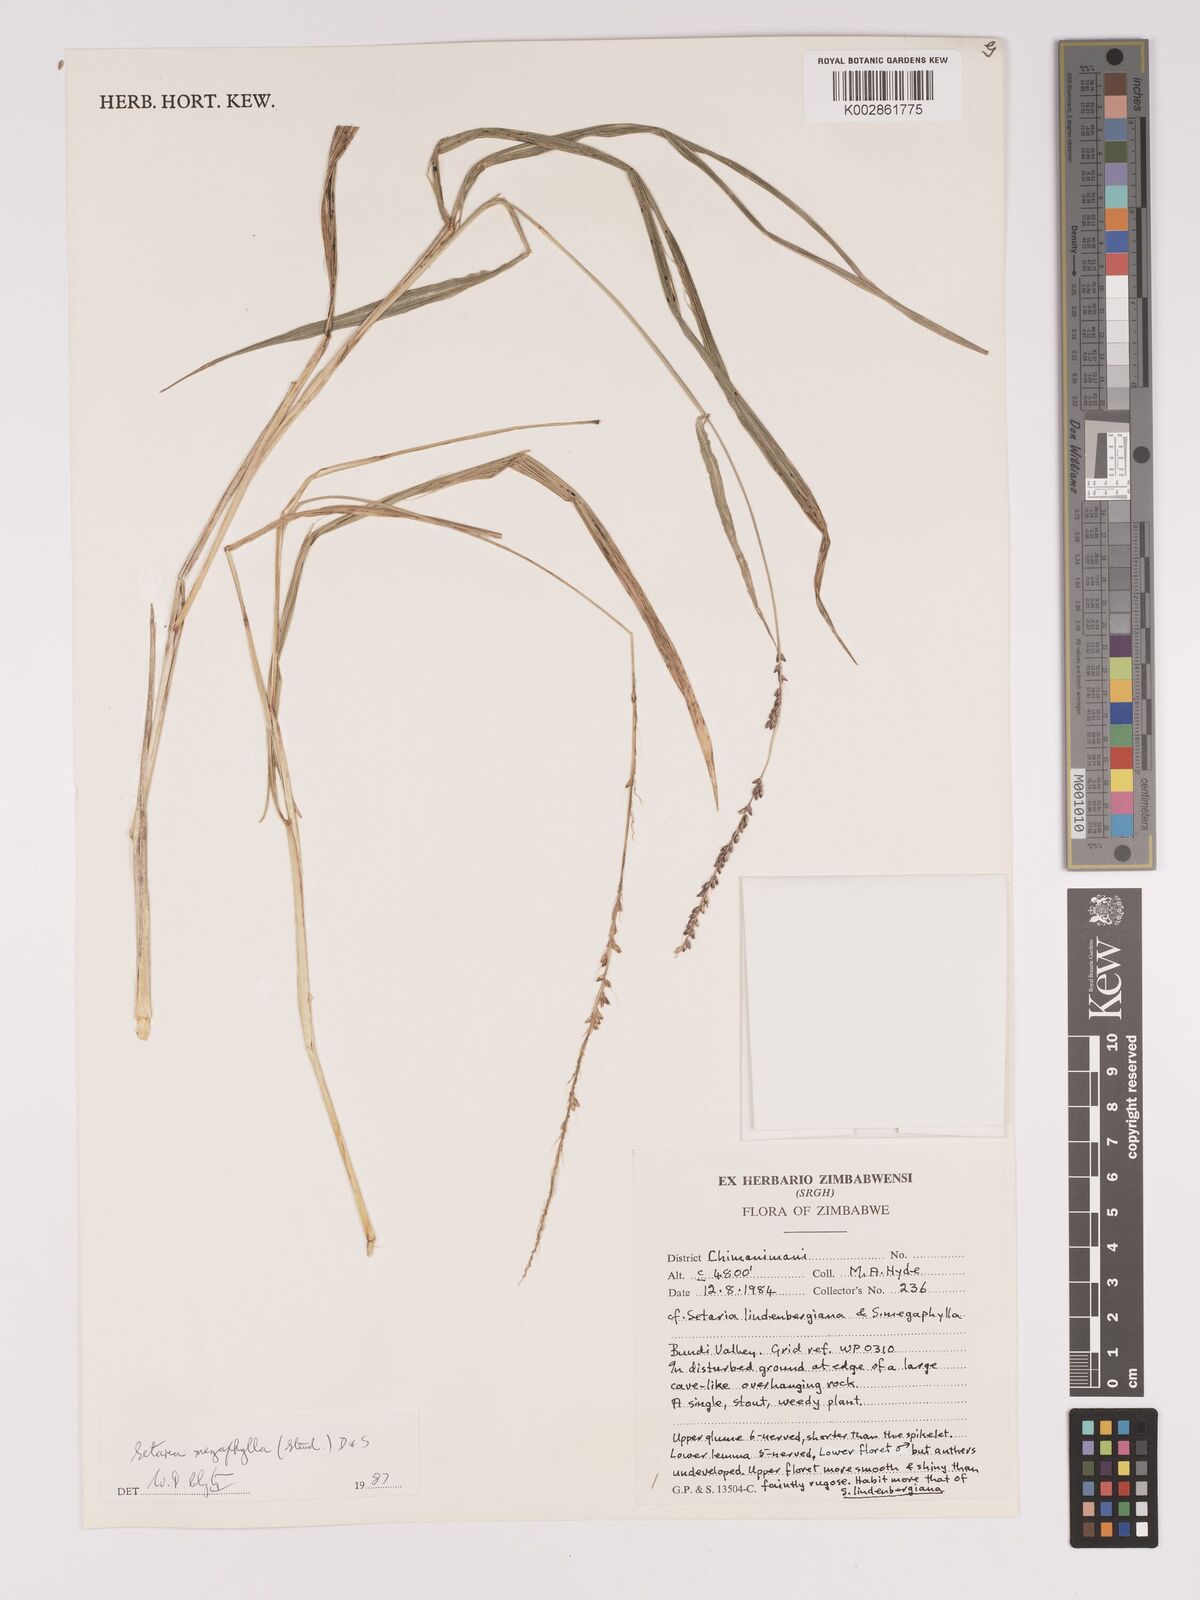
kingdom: Plantae
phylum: Tracheophyta
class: Liliopsida
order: Poales
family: Poaceae
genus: Setaria
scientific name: Setaria megaphylla
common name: Bigleaf bristlegrass
